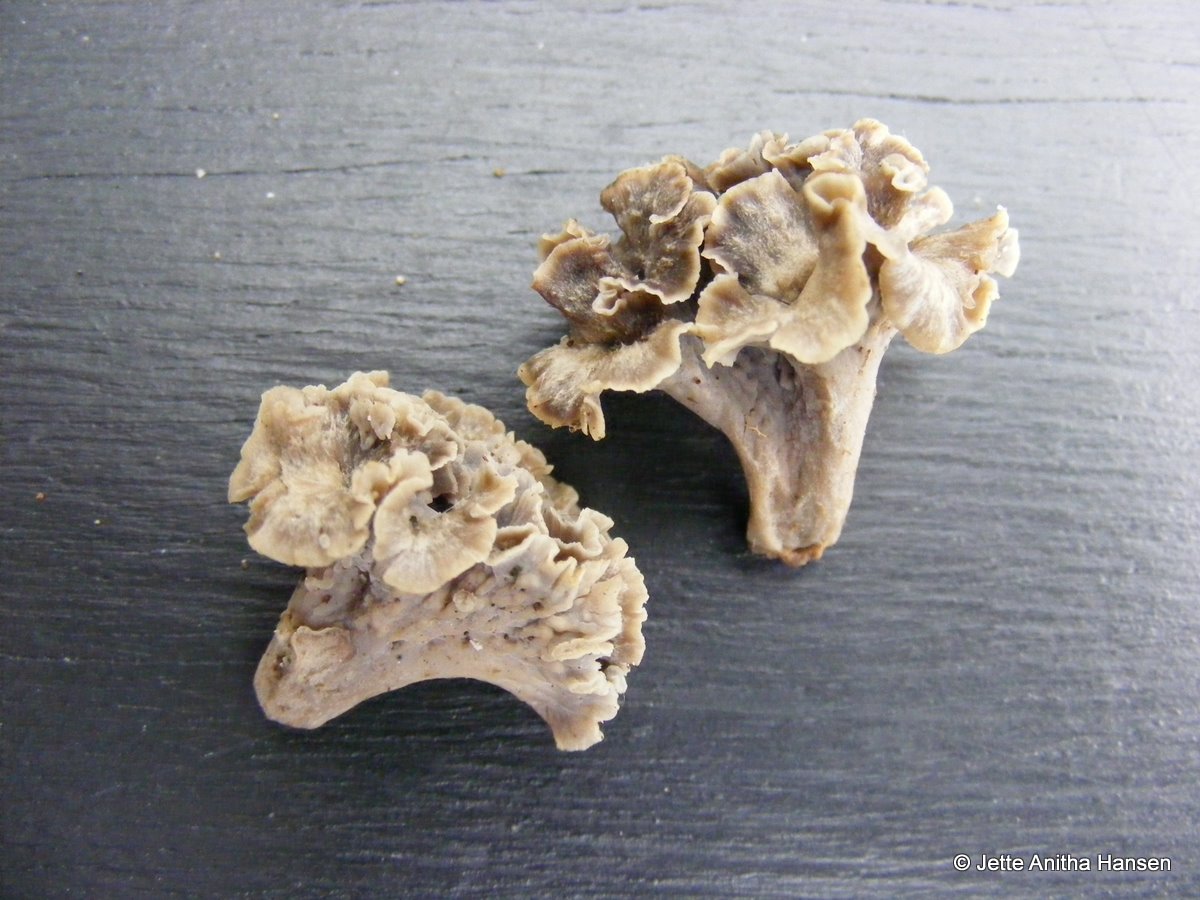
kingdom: Fungi
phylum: Basidiomycota
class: Agaricomycetes
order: Cantharellales
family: Hydnaceae
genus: Craterellus
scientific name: Craterellus undulatus
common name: liden kantarel
